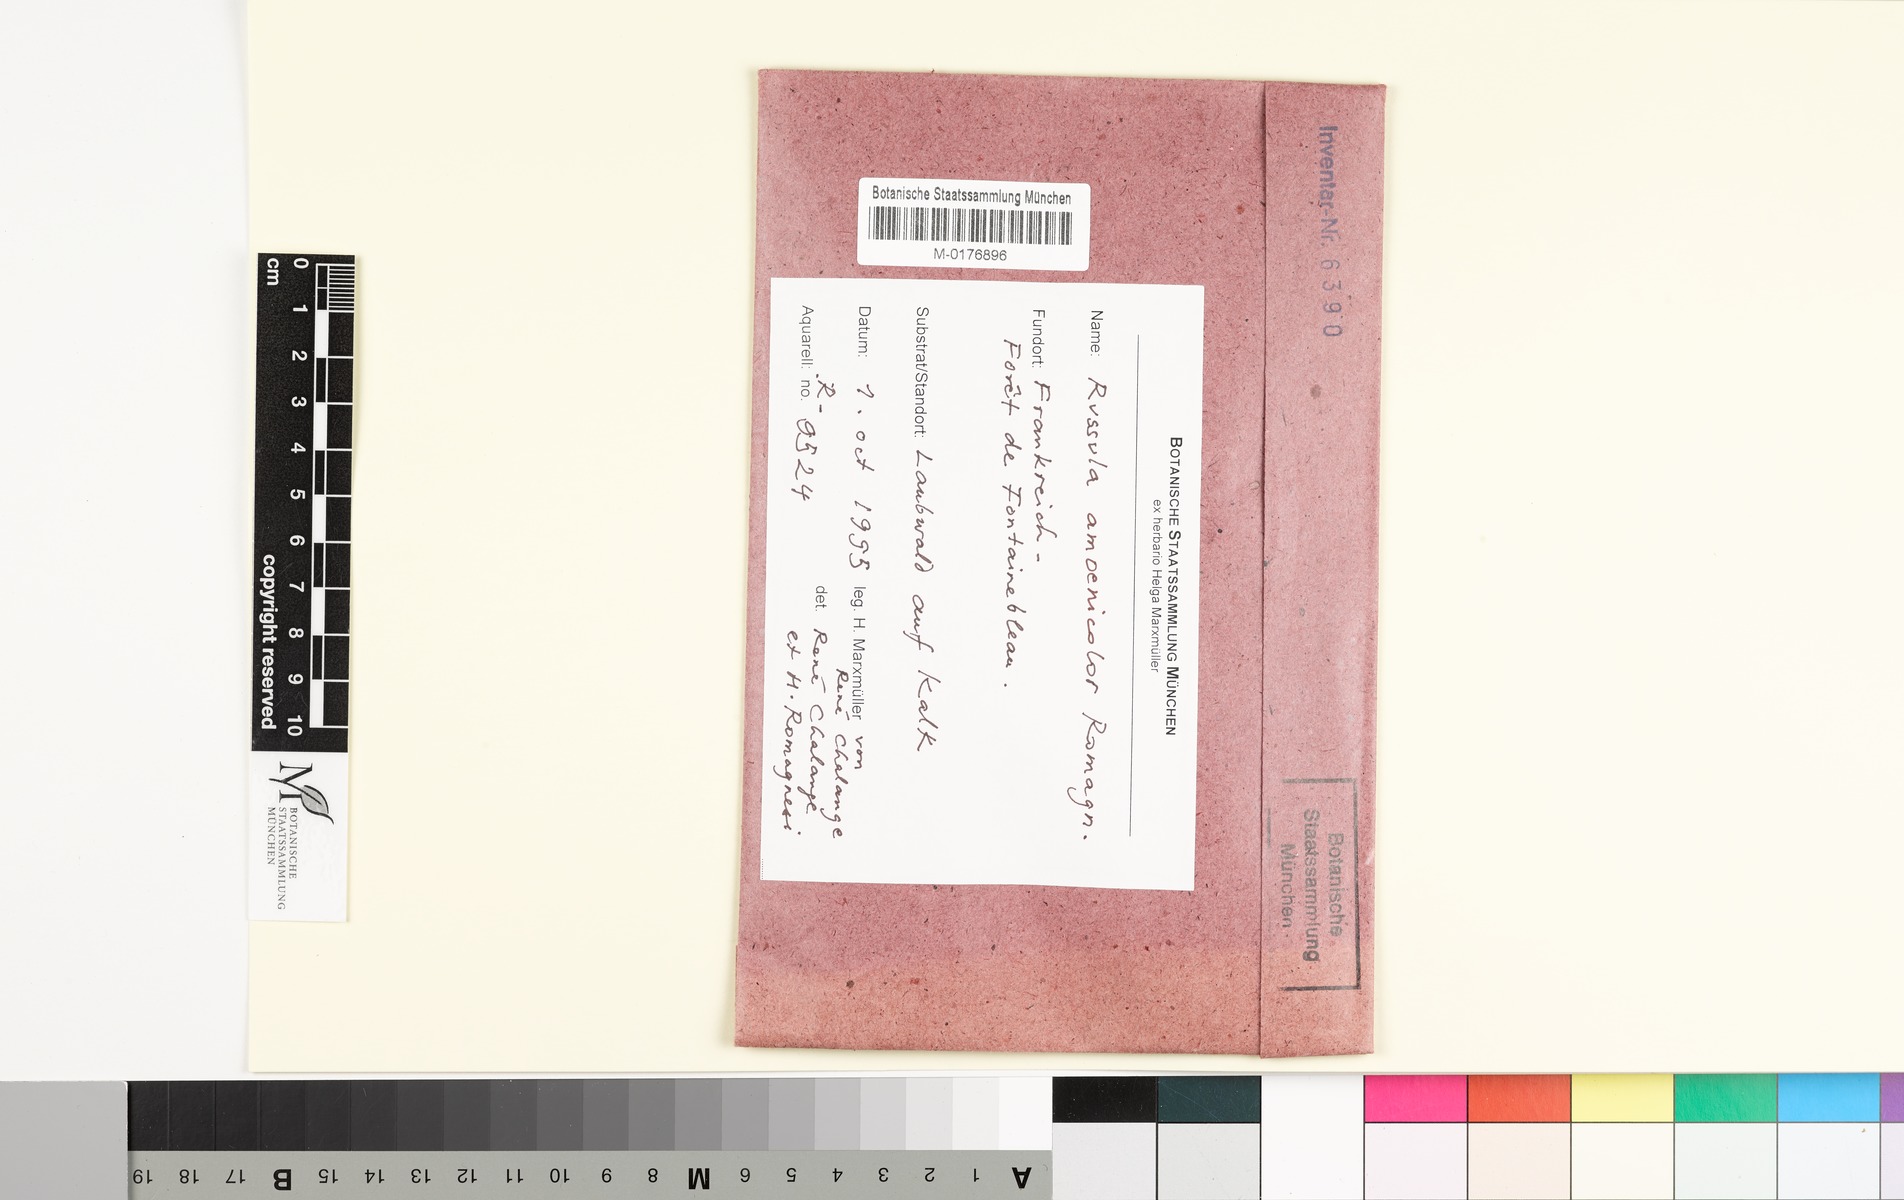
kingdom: Fungi
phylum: Basidiomycota
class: Agaricomycetes
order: Russulales
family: Russulaceae
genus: Russula
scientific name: Russula amoenicolor
